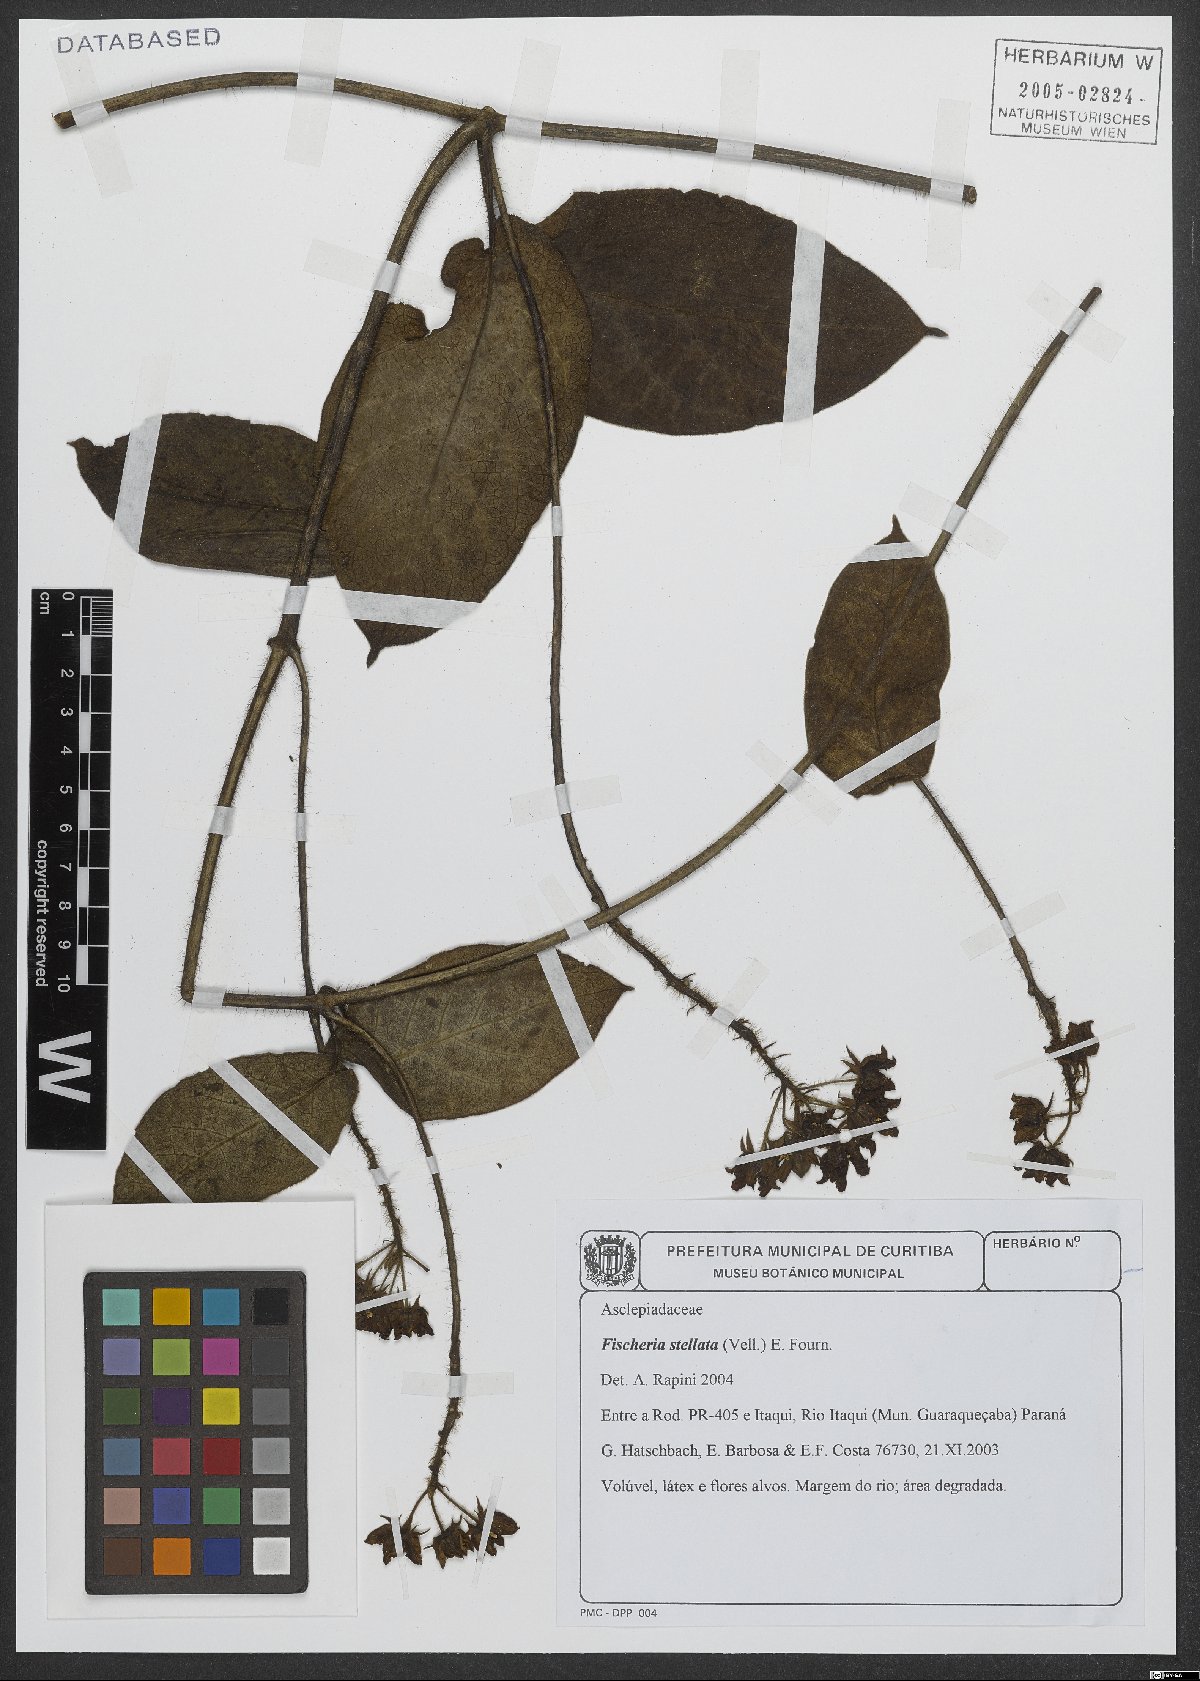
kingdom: Plantae
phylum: Tracheophyta
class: Magnoliopsida
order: Gentianales
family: Apocynaceae
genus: Fischeria
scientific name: Fischeria stellata
